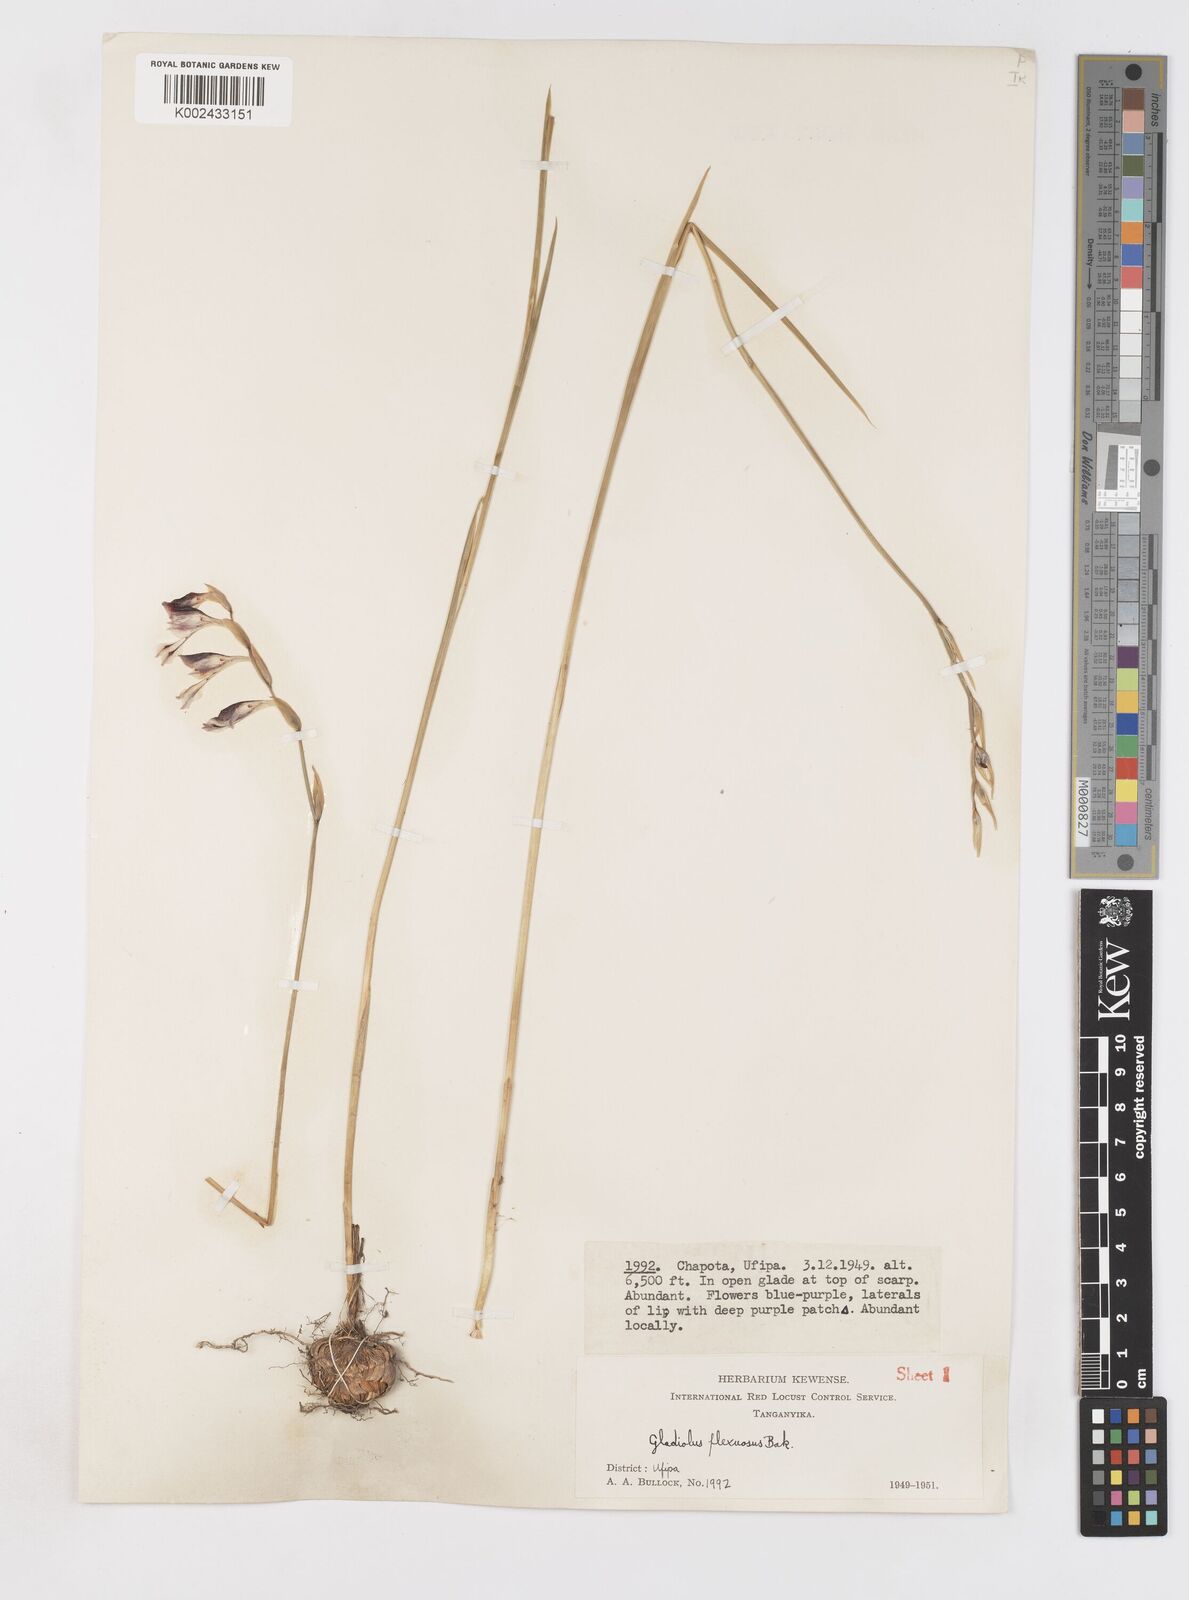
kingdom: Plantae
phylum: Tracheophyta
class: Liliopsida
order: Asparagales
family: Iridaceae
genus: Gladiolus
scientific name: Gladiolus atropurpureus
